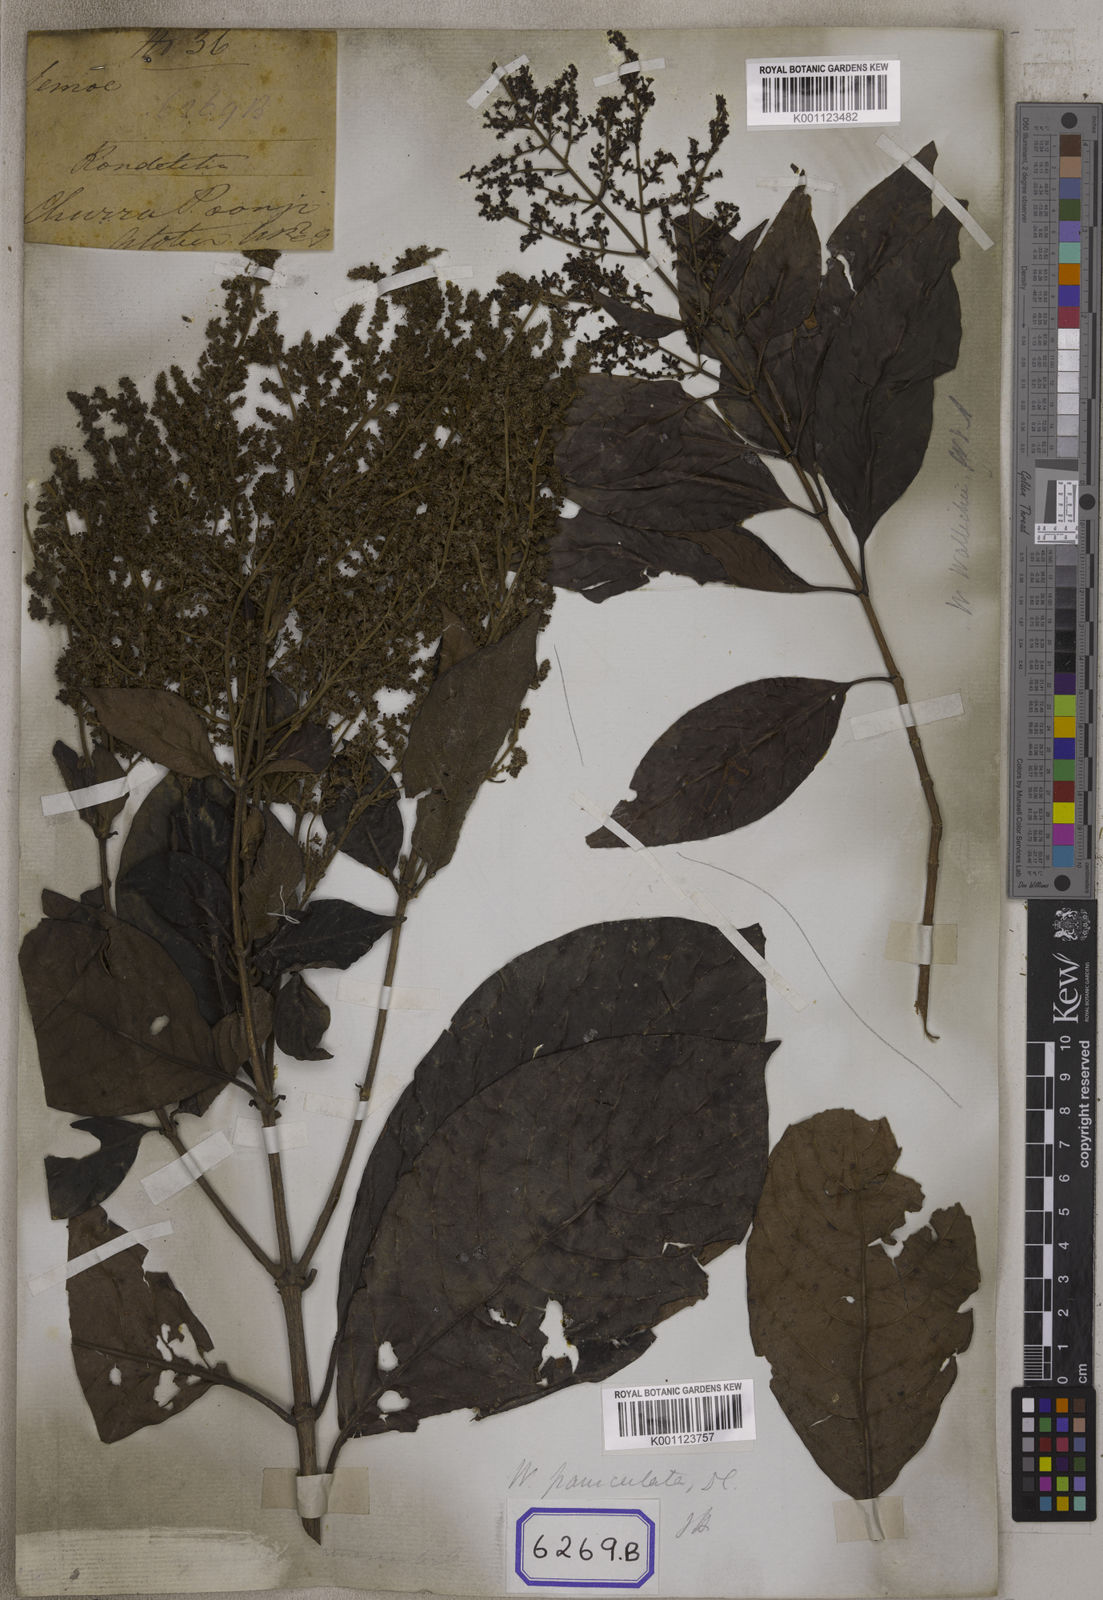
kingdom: Plantae
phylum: Tracheophyta
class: Magnoliopsida
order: Gentianales
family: Rubiaceae
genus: Wendlandia
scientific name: Wendlandia tinctoria
